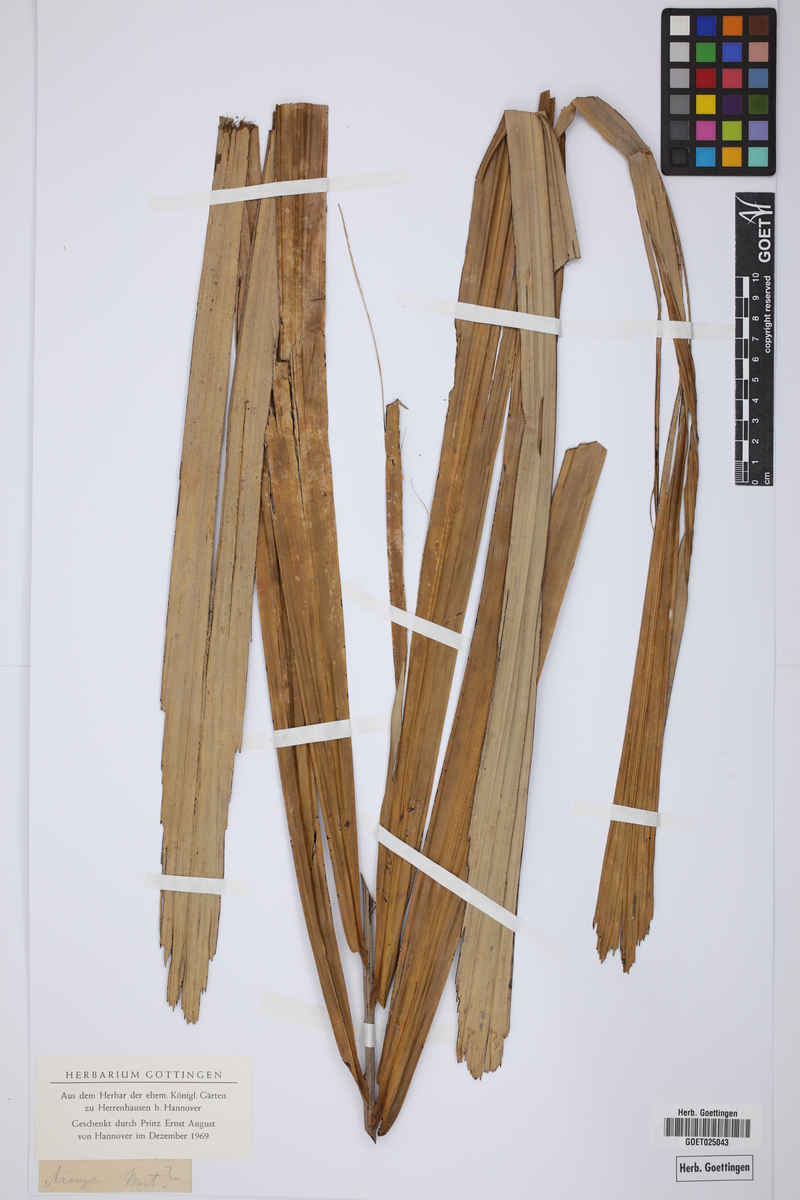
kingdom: Plantae
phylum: Tracheophyta
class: Liliopsida
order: Arecales
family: Arecaceae
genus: Arenga
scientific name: Arenga
